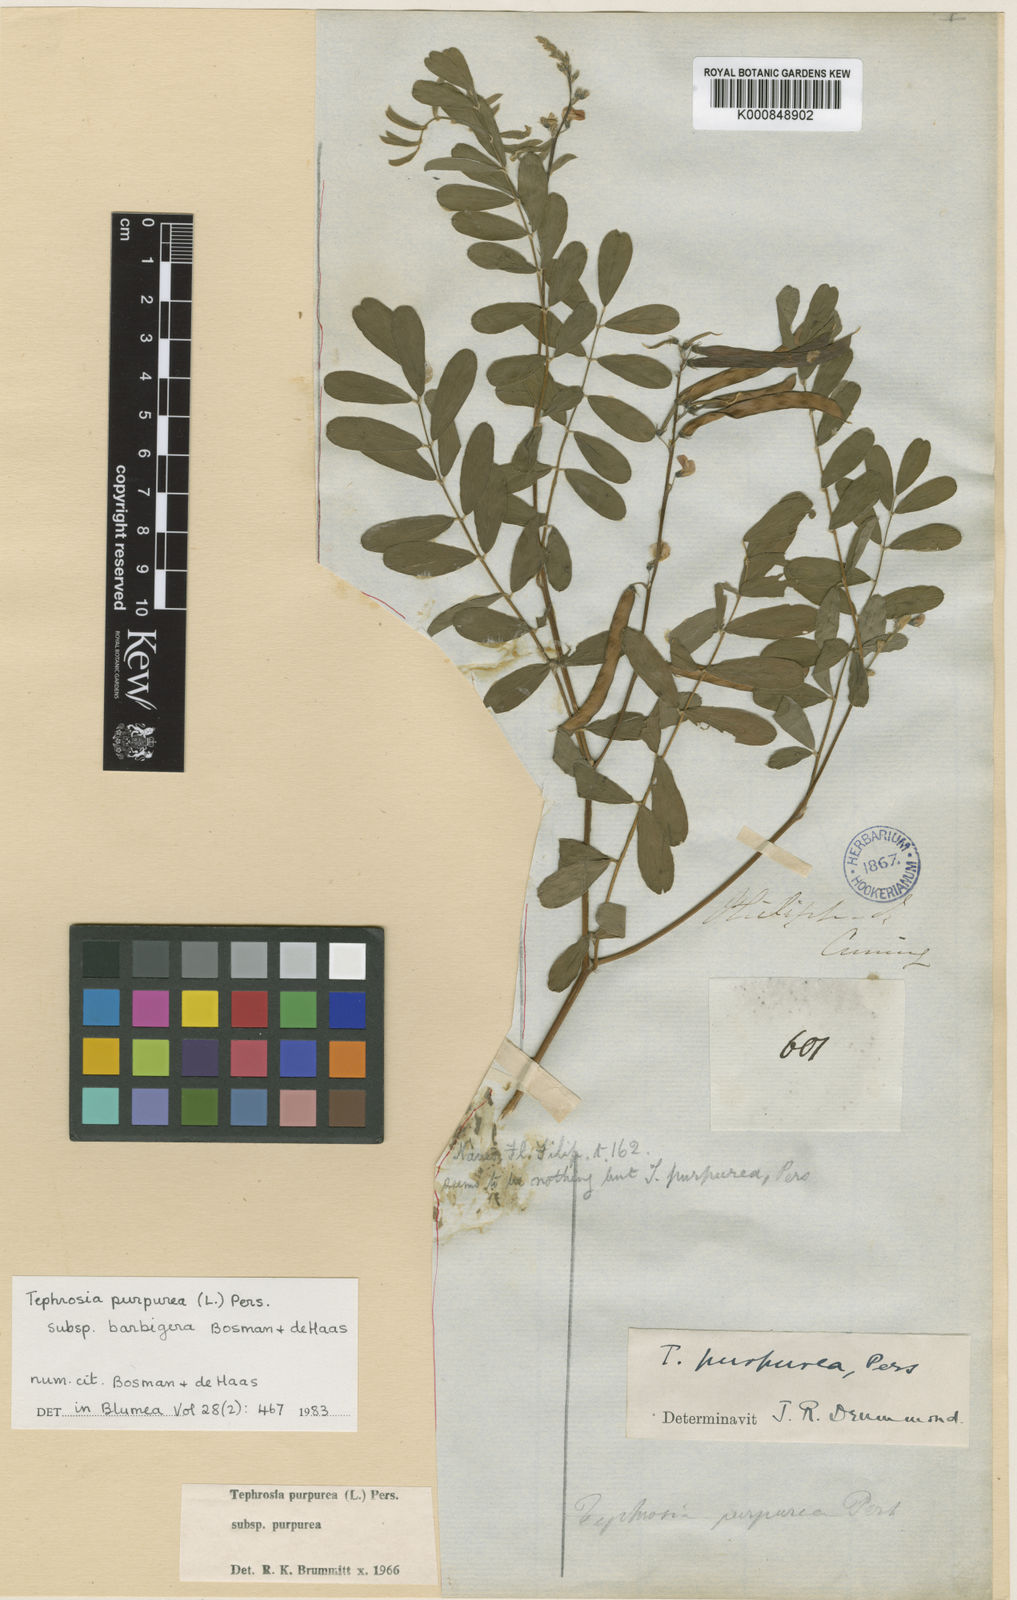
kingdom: Plantae
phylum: Tracheophyta
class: Magnoliopsida
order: Fabales
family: Fabaceae
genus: Tephrosia
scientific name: Tephrosia purpurea
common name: Fishpoison
